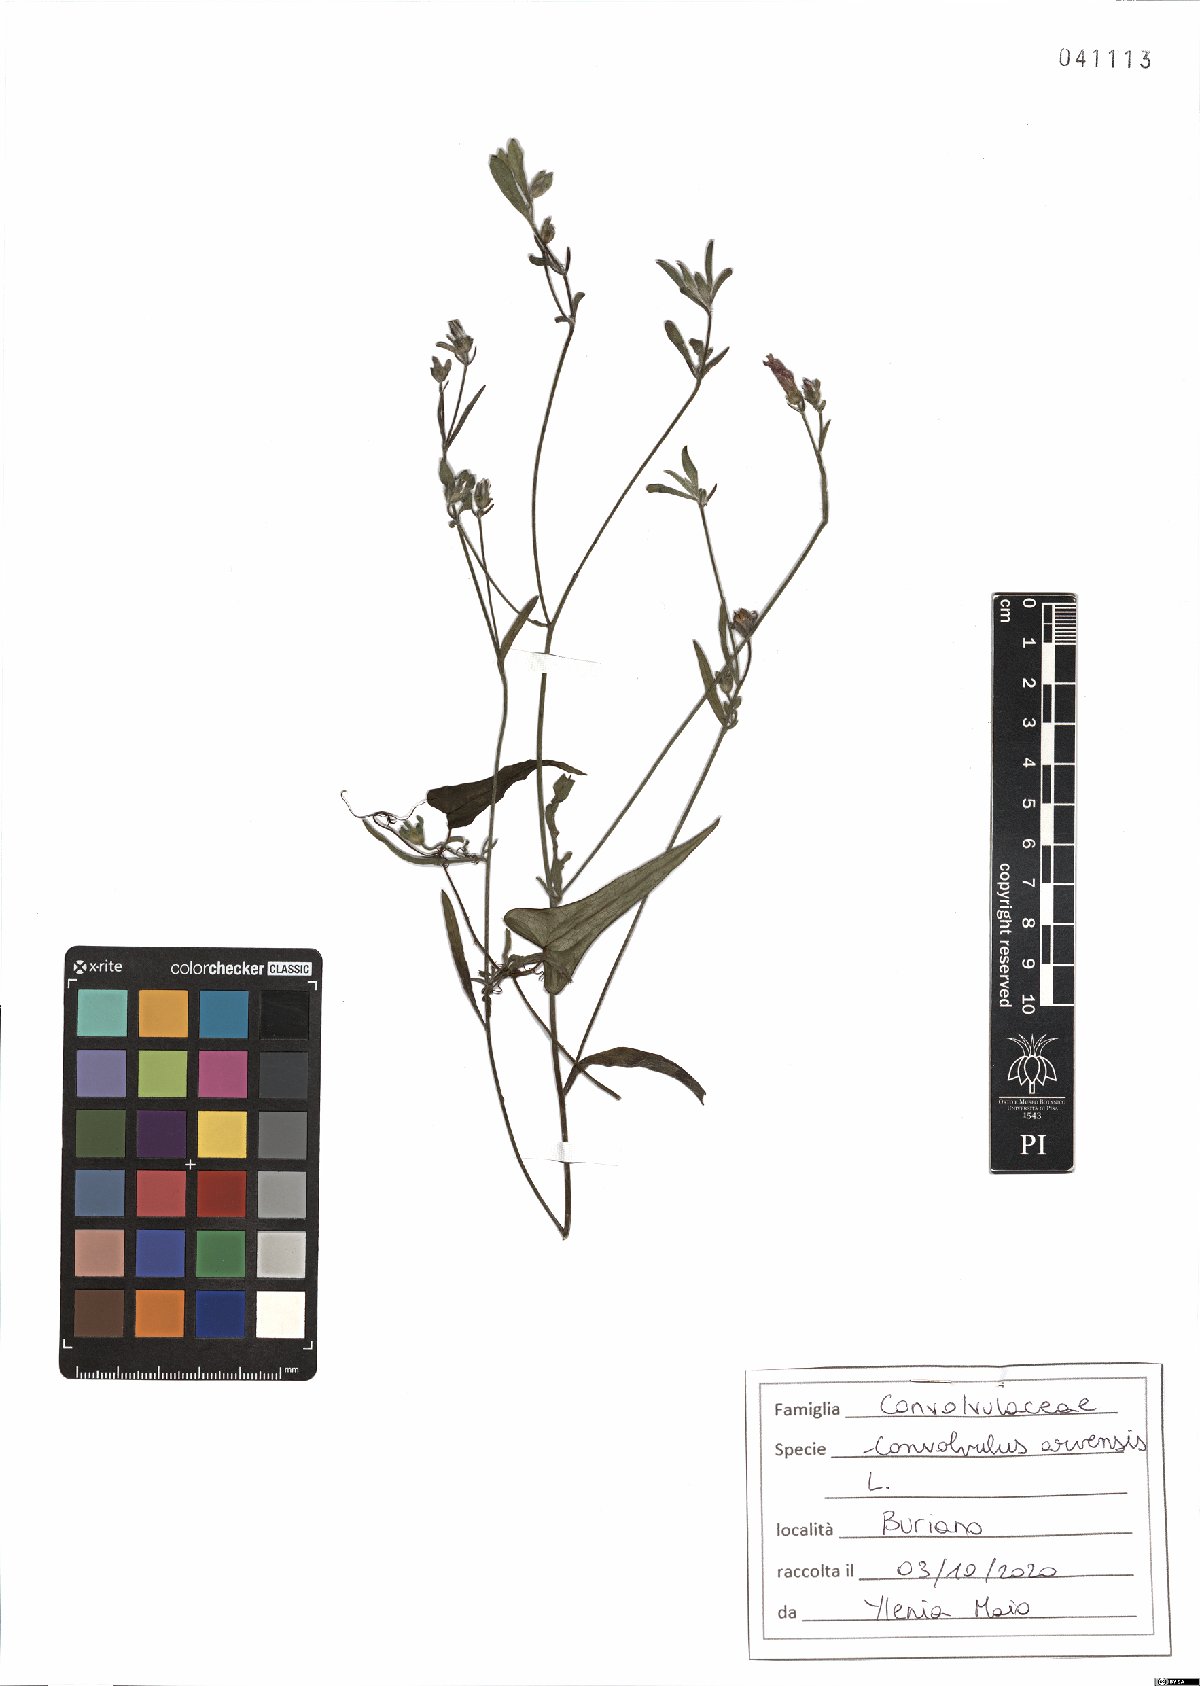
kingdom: Plantae
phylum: Tracheophyta
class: Magnoliopsida
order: Solanales
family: Convolvulaceae
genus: Convolvulus
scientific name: Convolvulus arvensis
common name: Field bindweed
